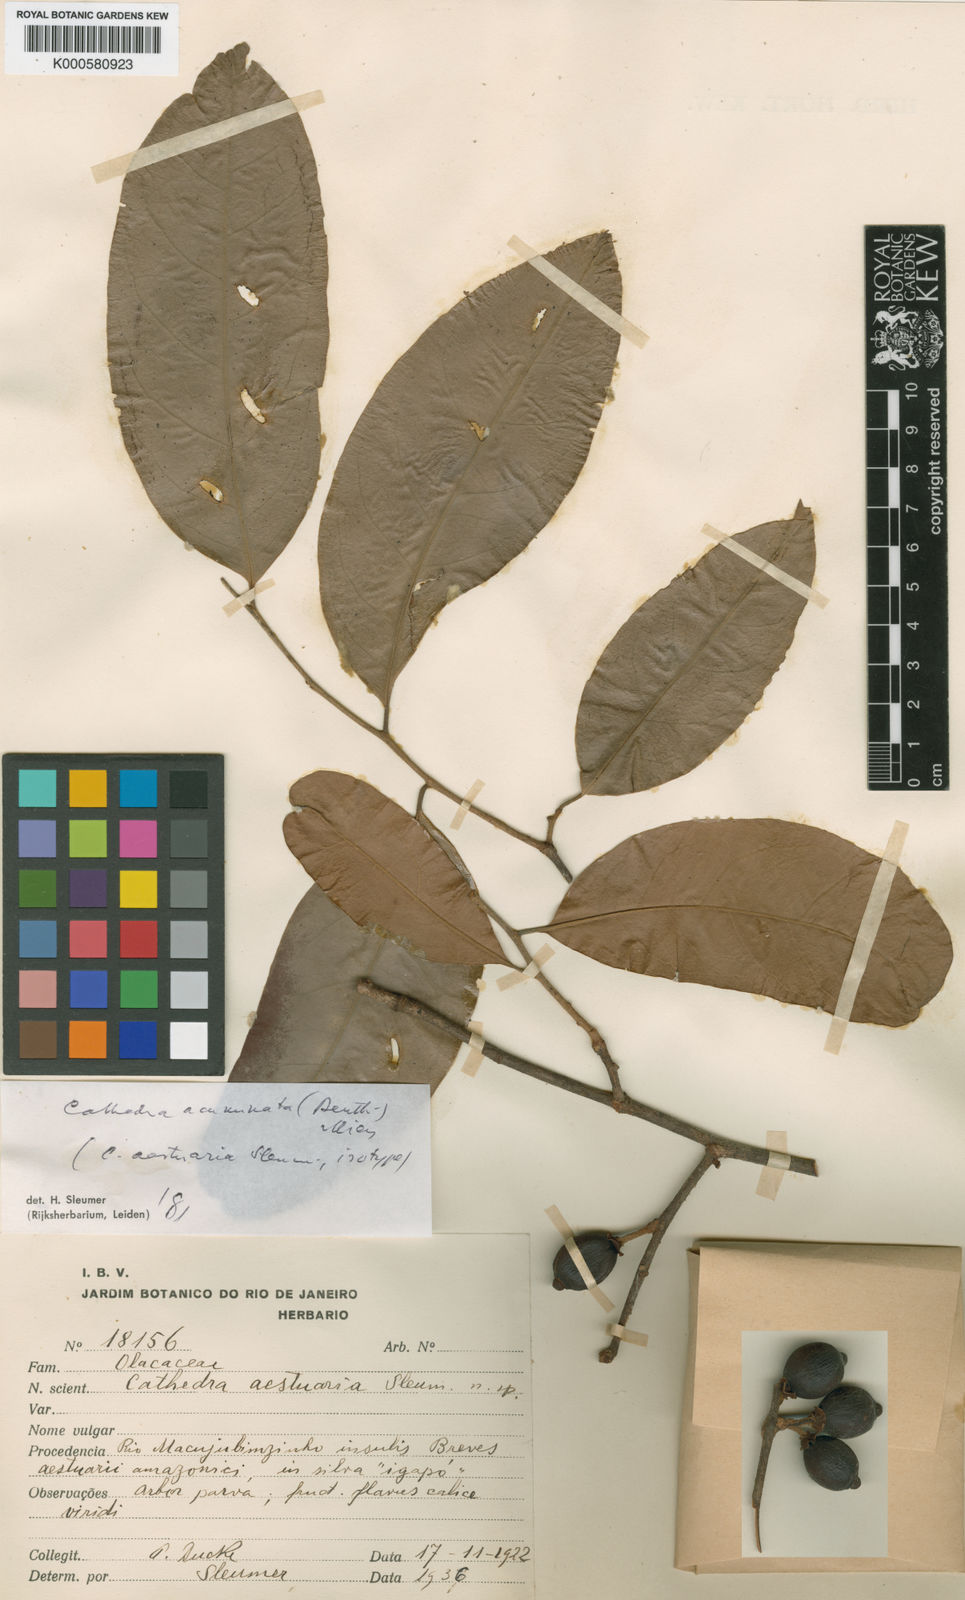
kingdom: Plantae
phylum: Tracheophyta
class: Magnoliopsida
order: Santalales
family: Aptandraceae
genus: Cathedra
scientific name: Cathedra acuminata
